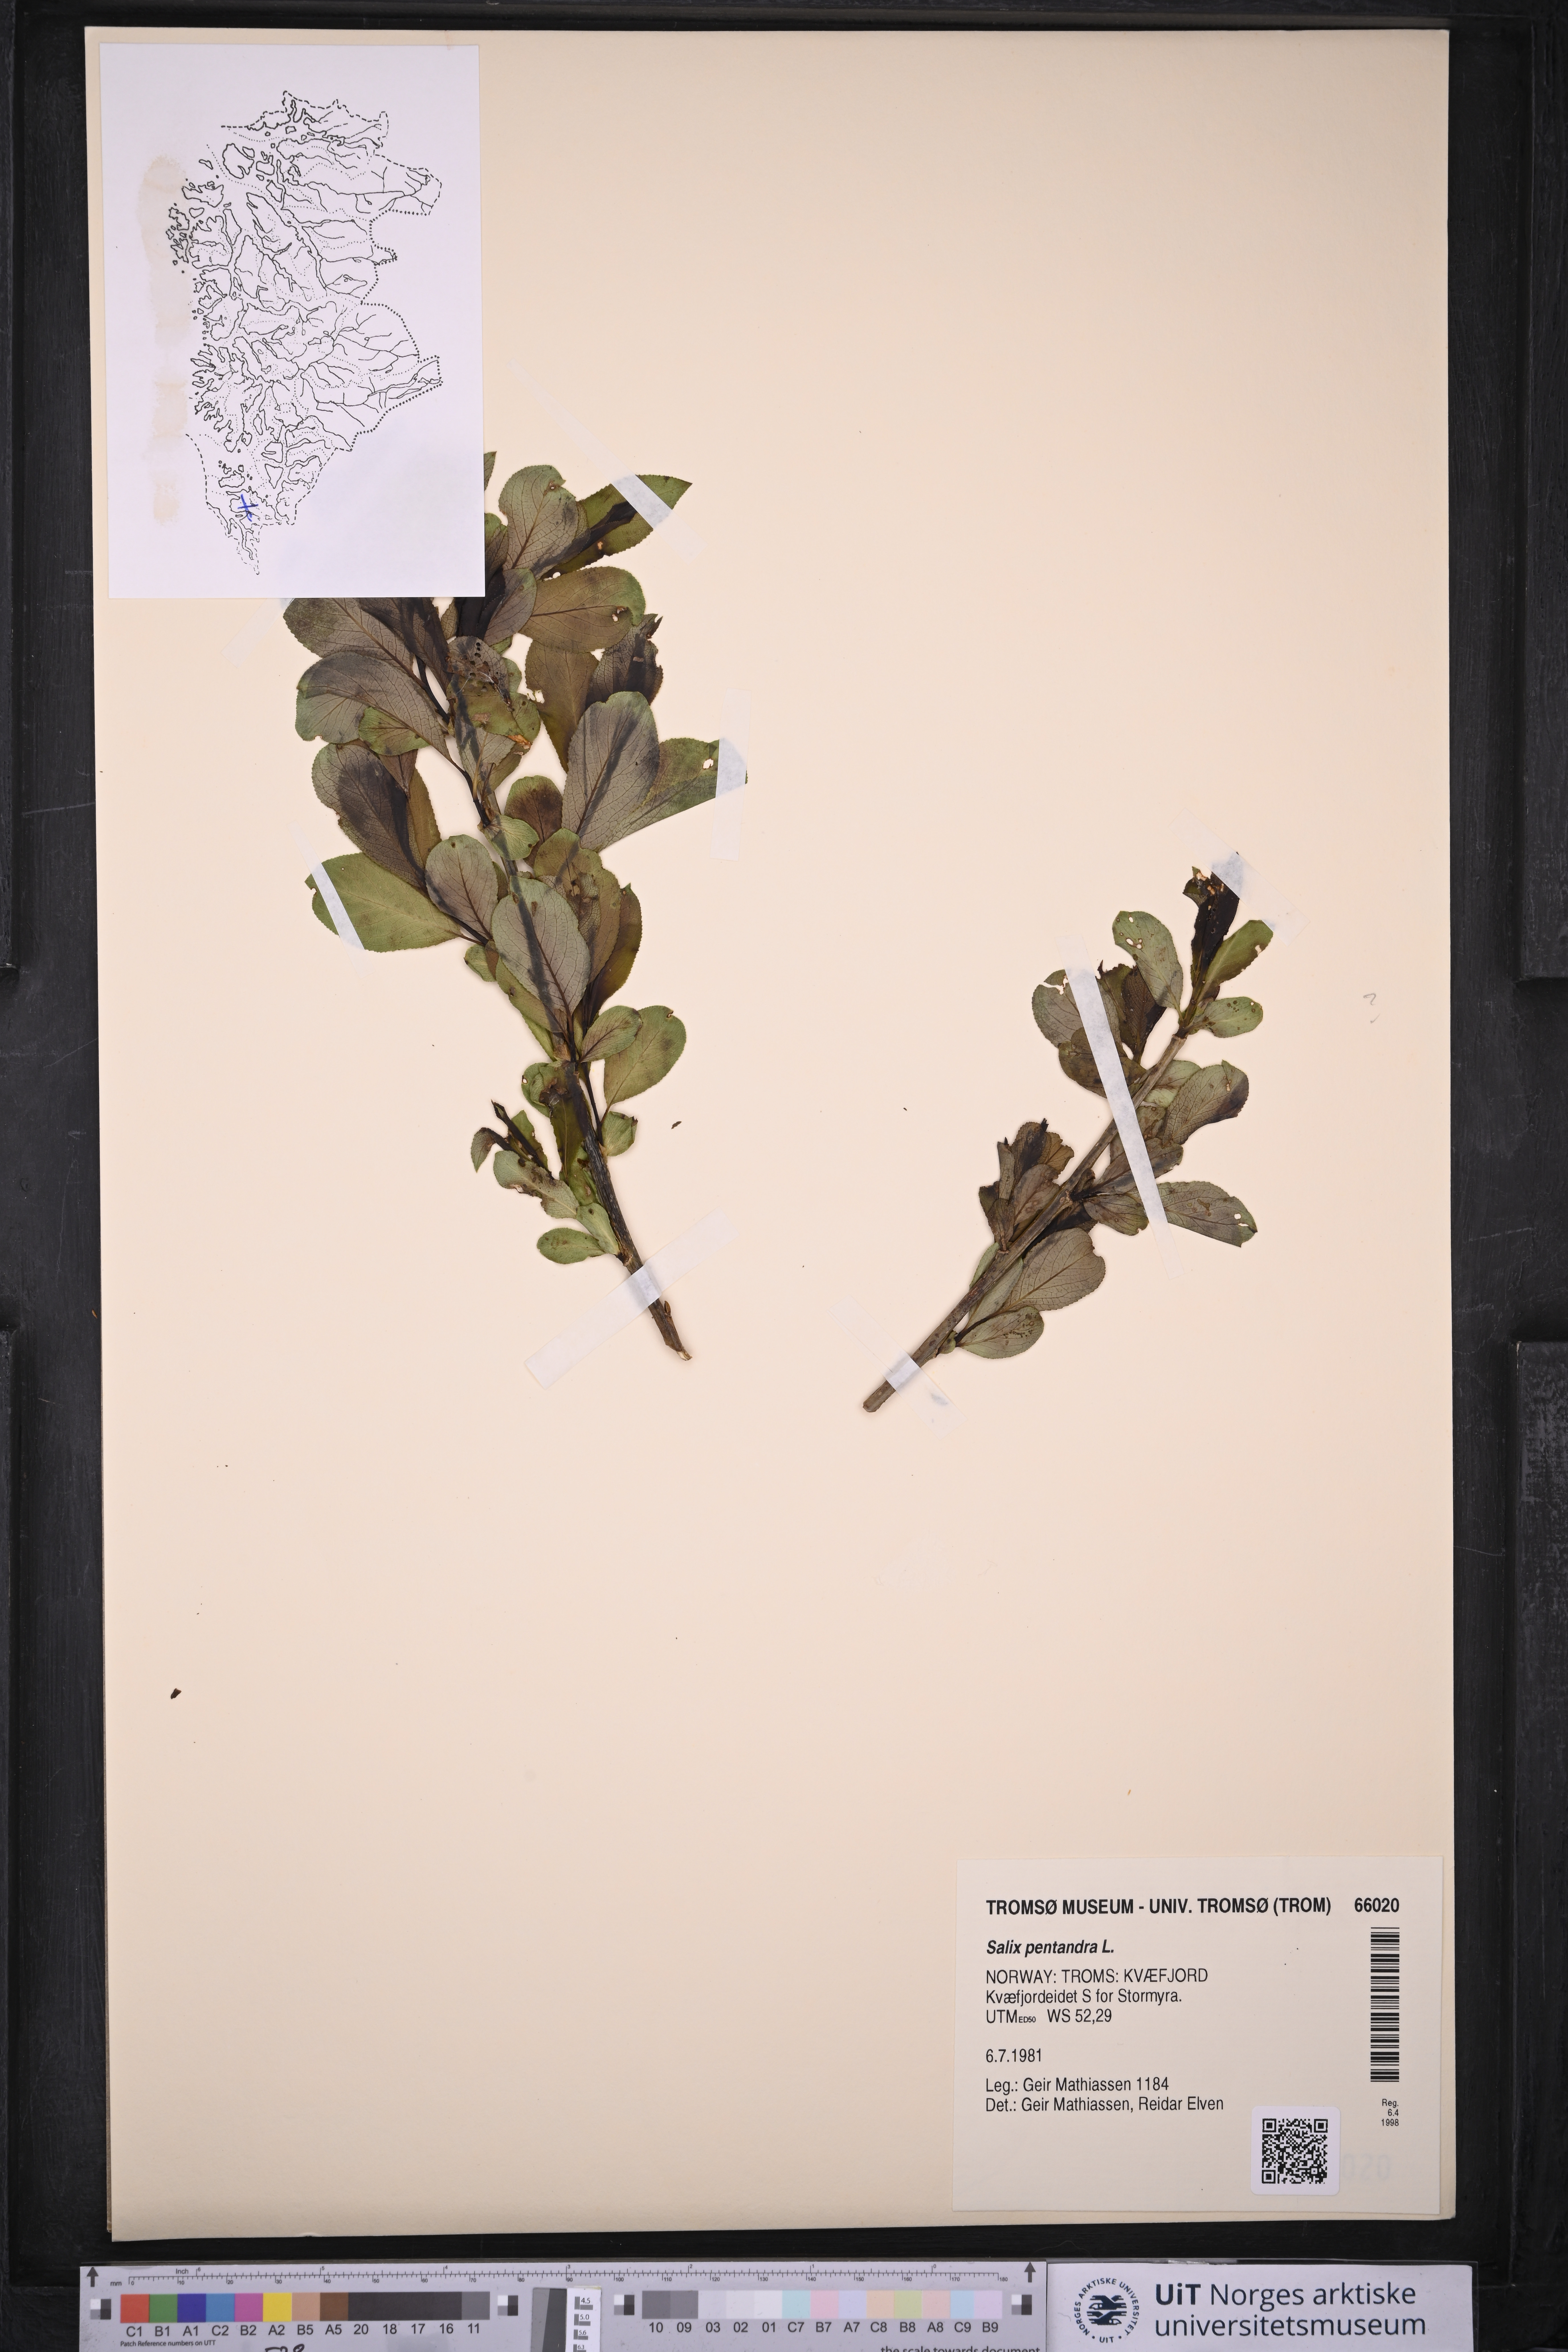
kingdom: Plantae
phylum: Tracheophyta
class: Magnoliopsida
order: Malpighiales
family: Salicaceae
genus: Salix
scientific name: Salix pentandra
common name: Bay willow
